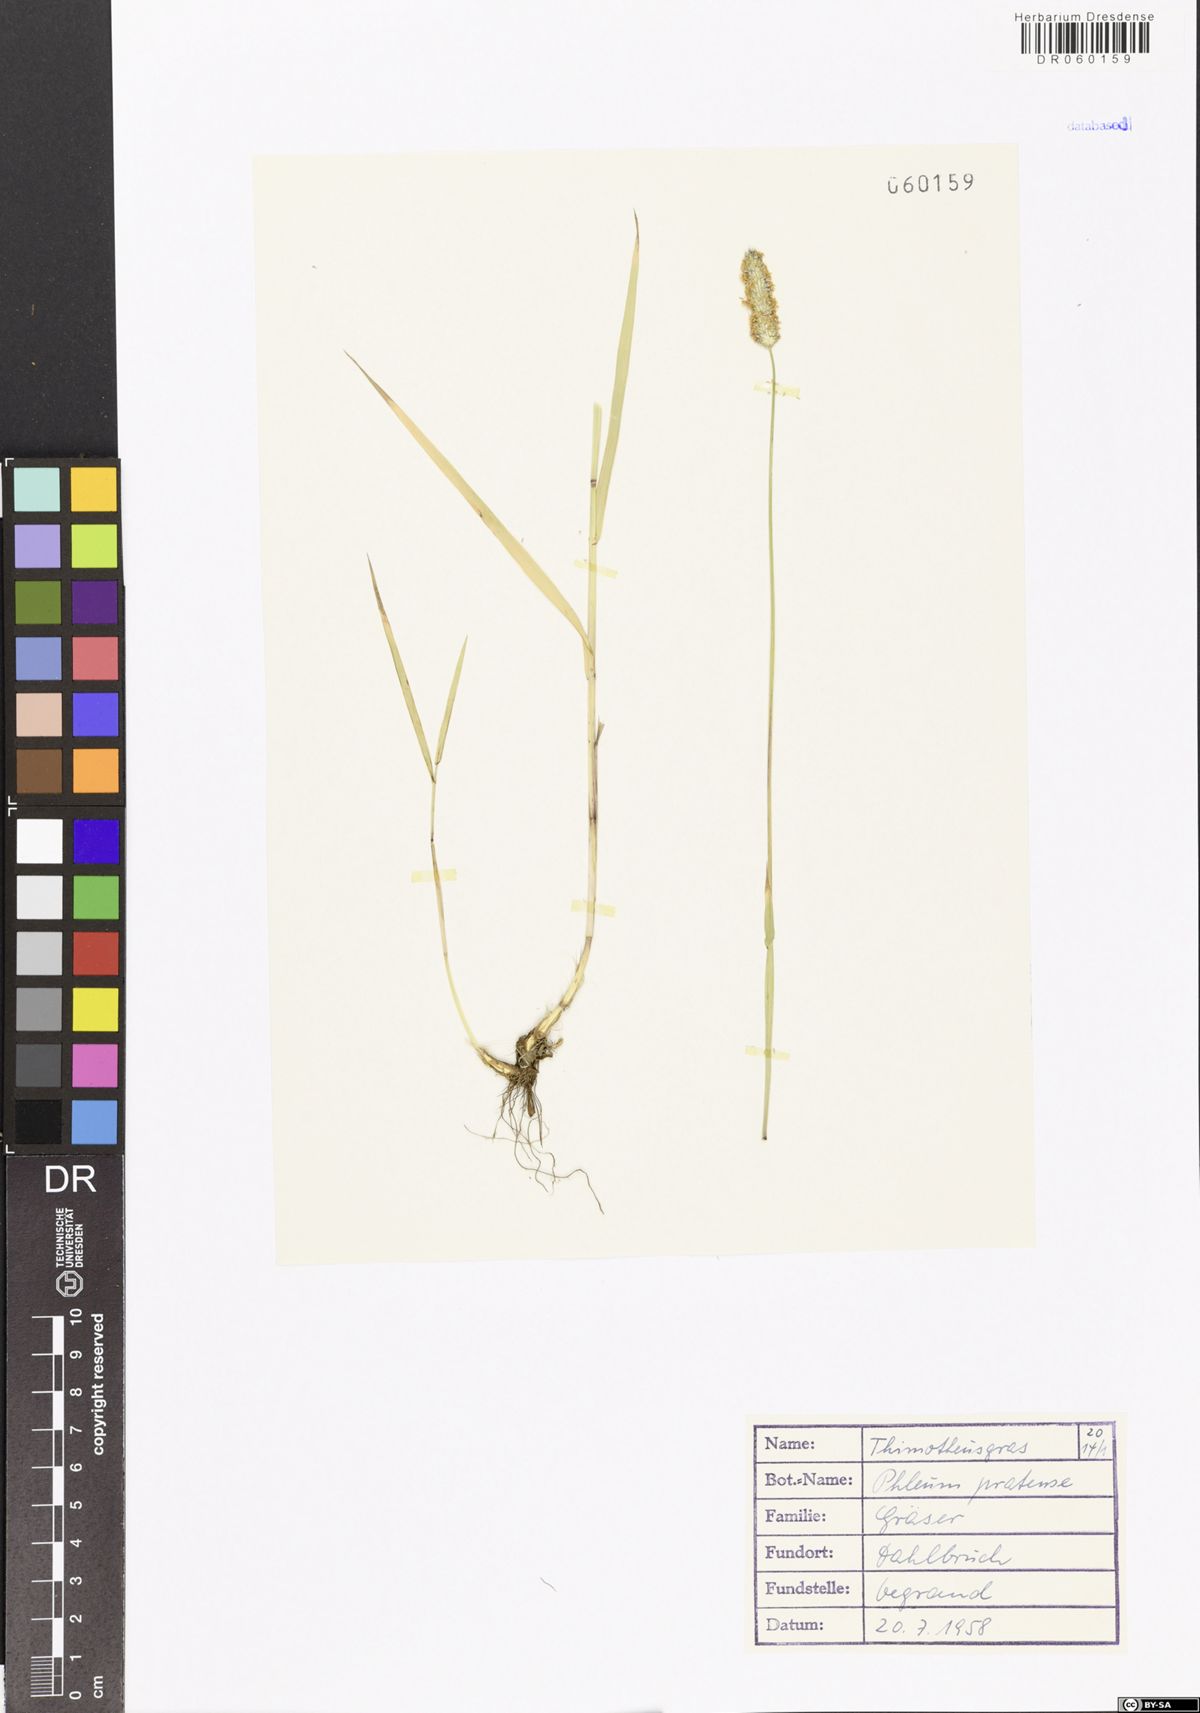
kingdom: Plantae
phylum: Tracheophyta
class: Liliopsida
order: Poales
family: Poaceae
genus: Phleum
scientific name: Phleum pratense
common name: Timothy grass
